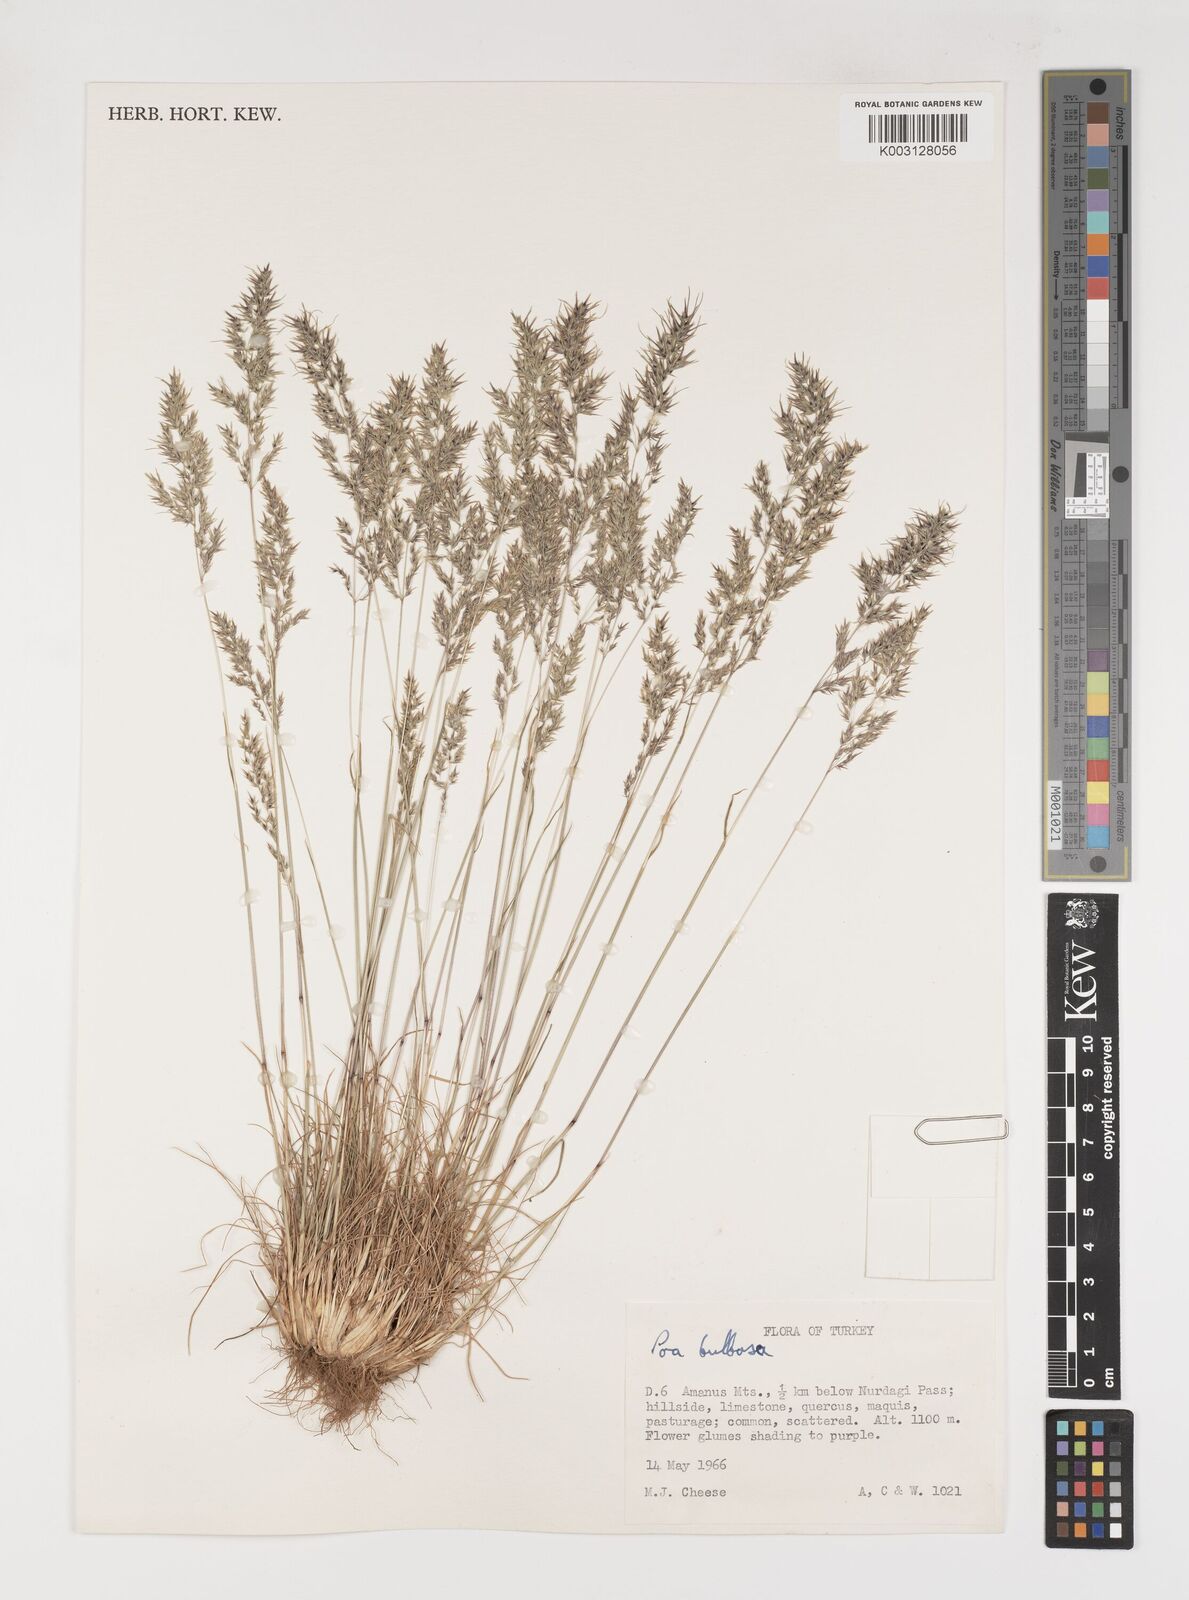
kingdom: Plantae
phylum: Tracheophyta
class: Liliopsida
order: Poales
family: Poaceae
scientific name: Poaceae
